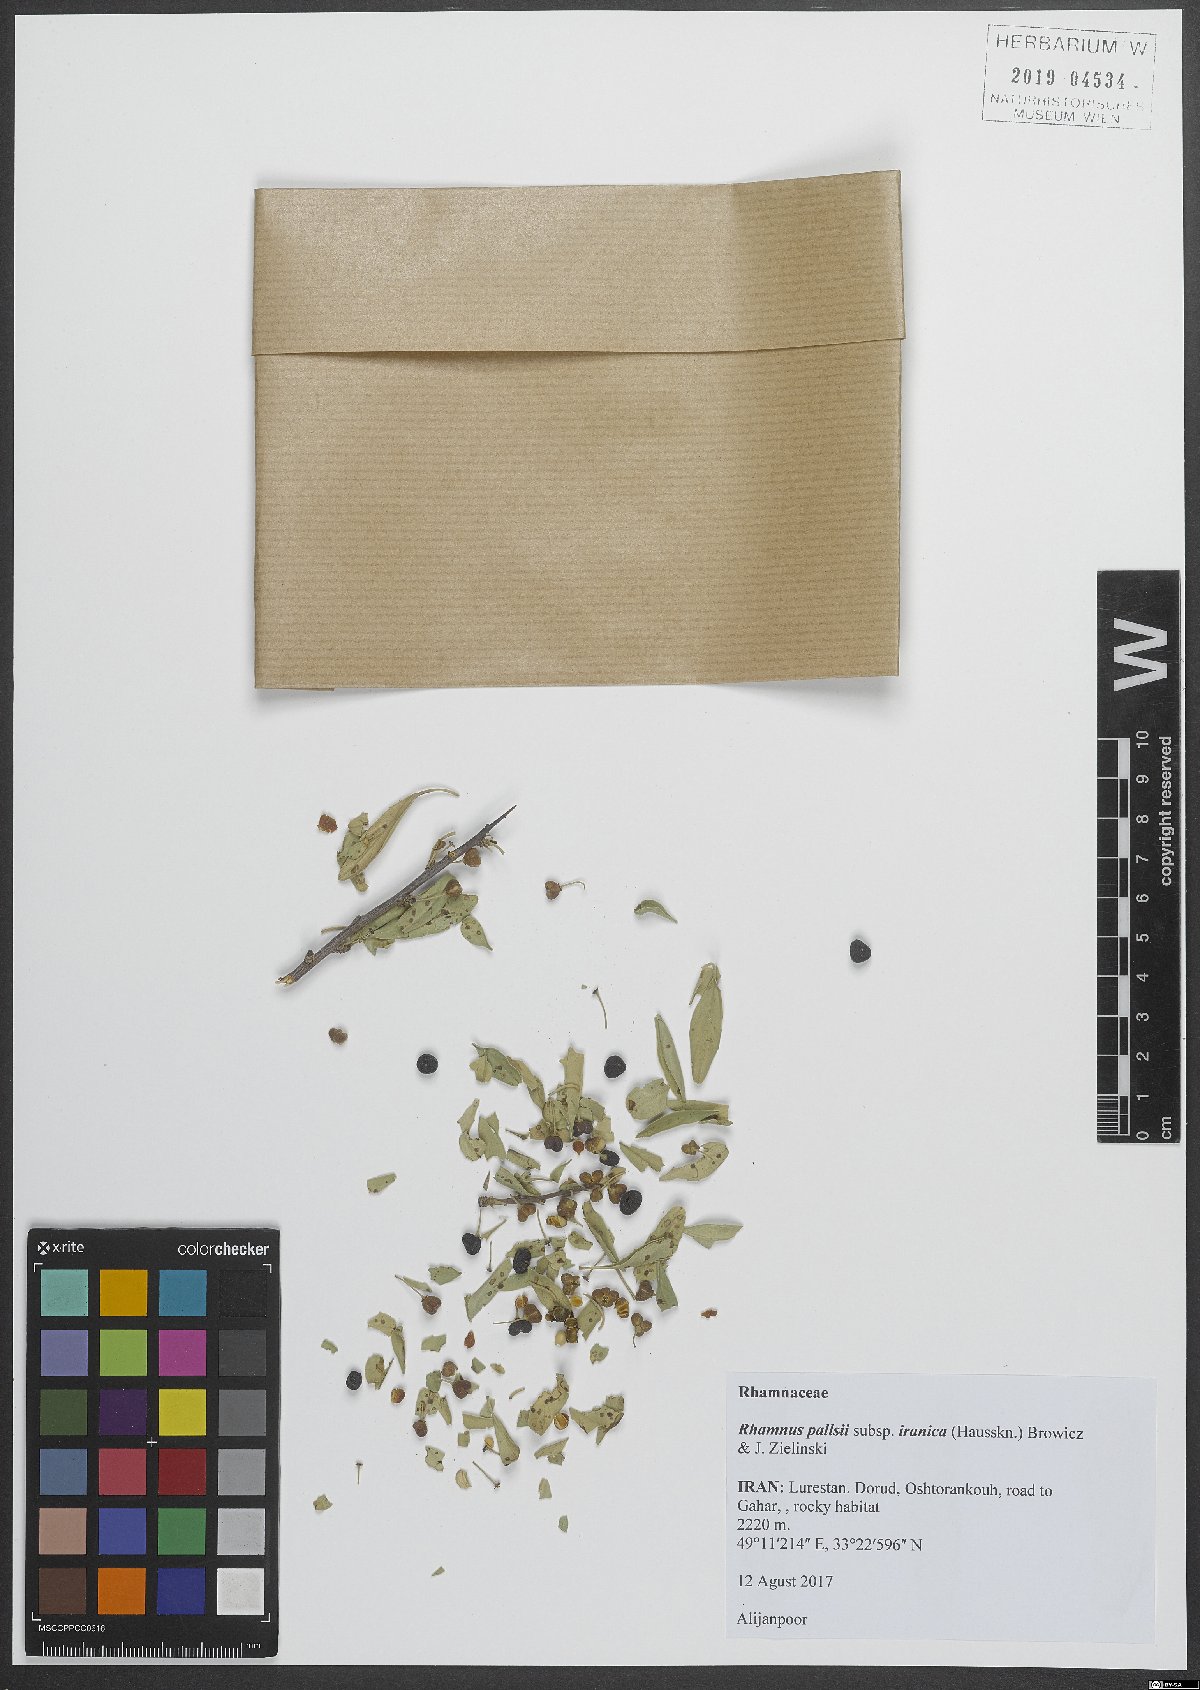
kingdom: Plantae
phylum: Tracheophyta
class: Magnoliopsida
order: Rosales
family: Rhamnaceae
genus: Rhamnus
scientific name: Rhamnus erythroxyloides
